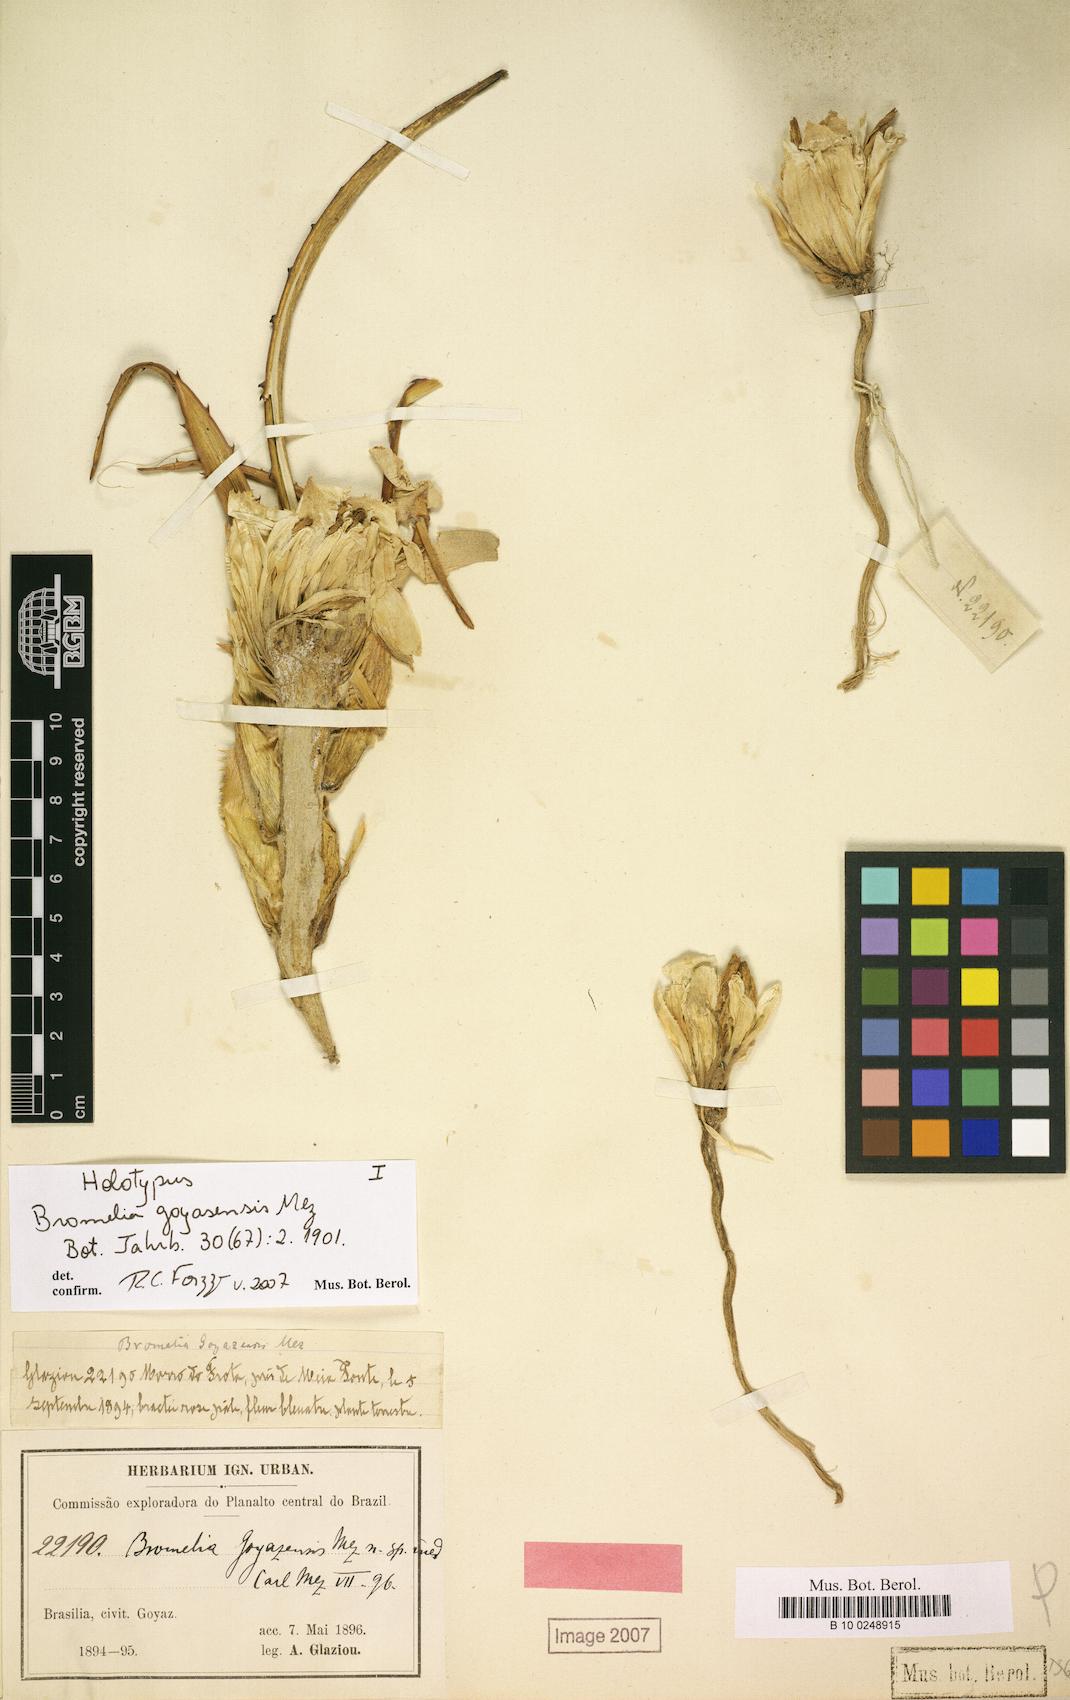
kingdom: Plantae
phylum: Tracheophyta
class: Liliopsida
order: Poales
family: Bromeliaceae
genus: Bromelia
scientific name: Bromelia goyazensis
